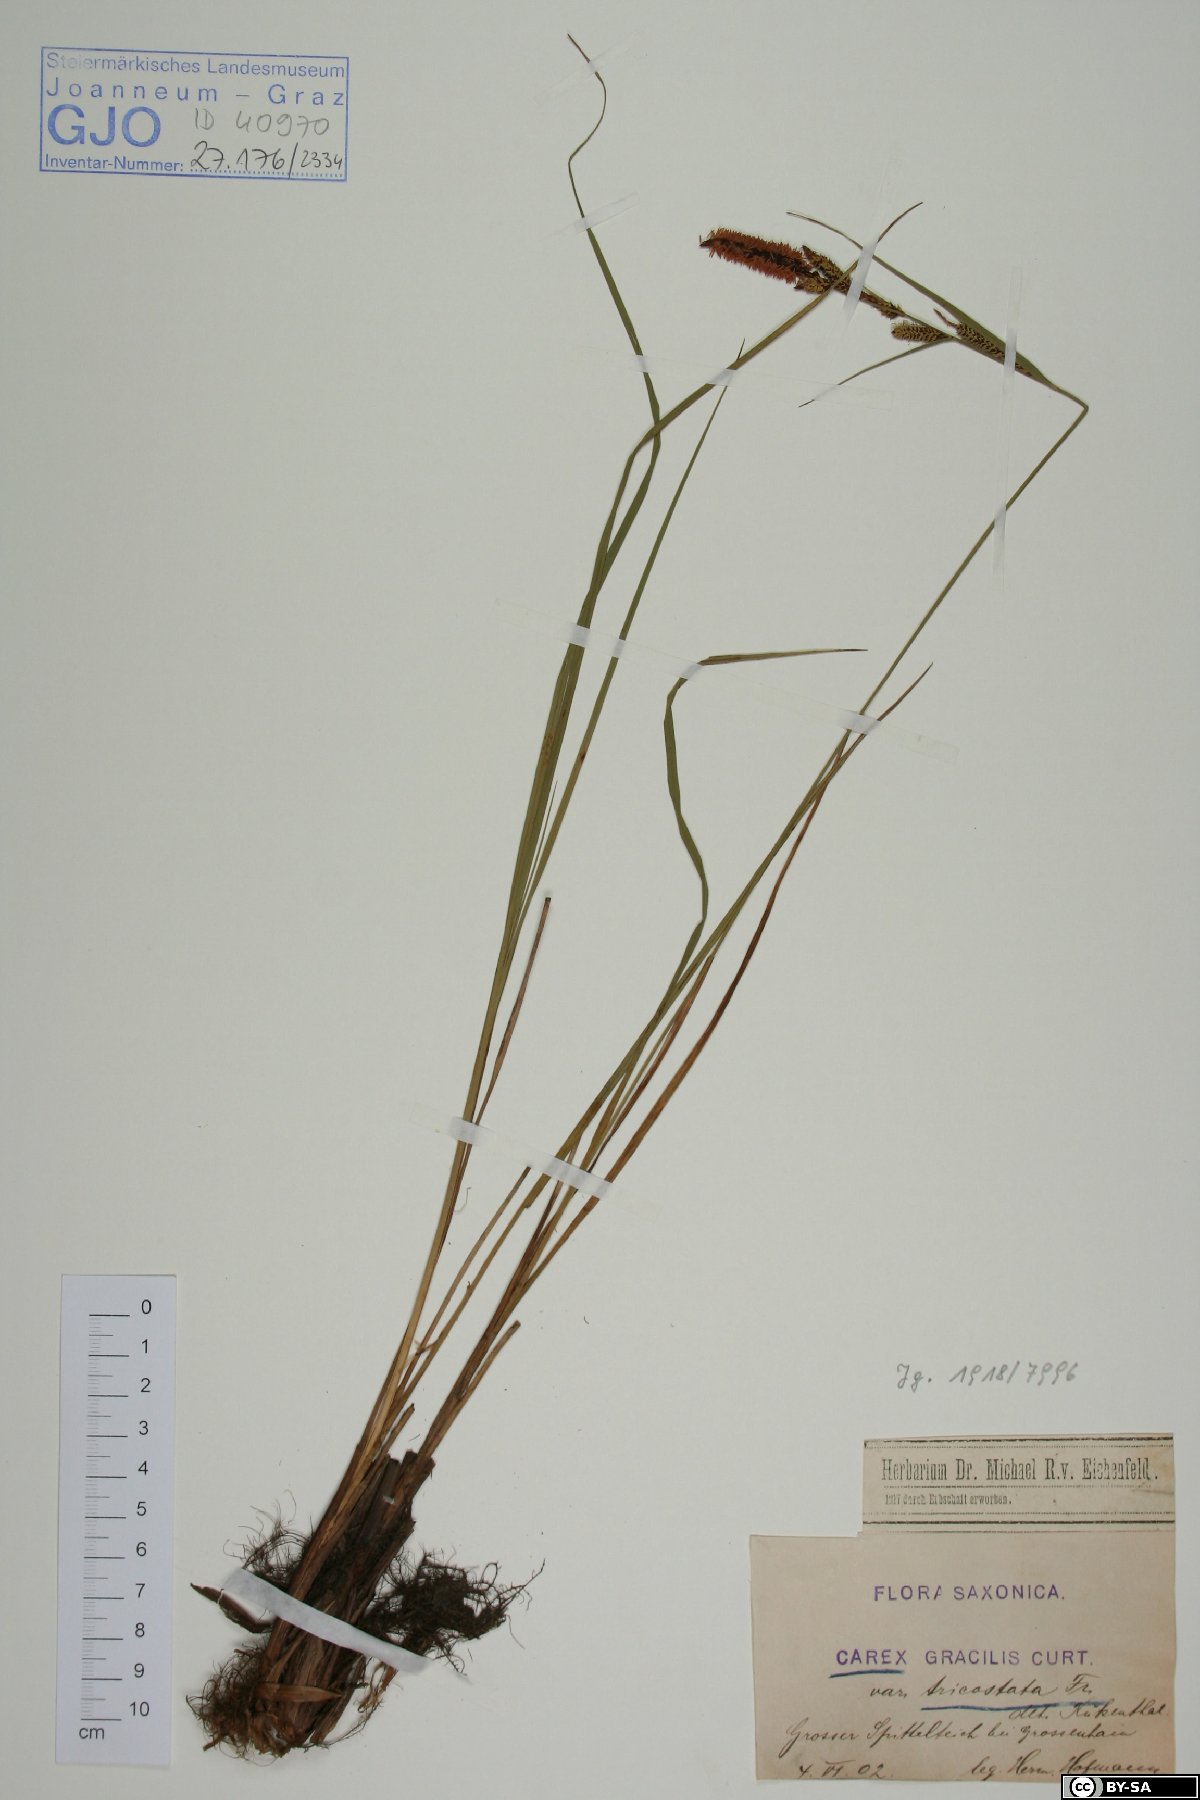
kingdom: Plantae
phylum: Tracheophyta
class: Liliopsida
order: Poales
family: Cyperaceae
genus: Carex
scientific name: Carex acuta
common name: Slender tufted-sedge
